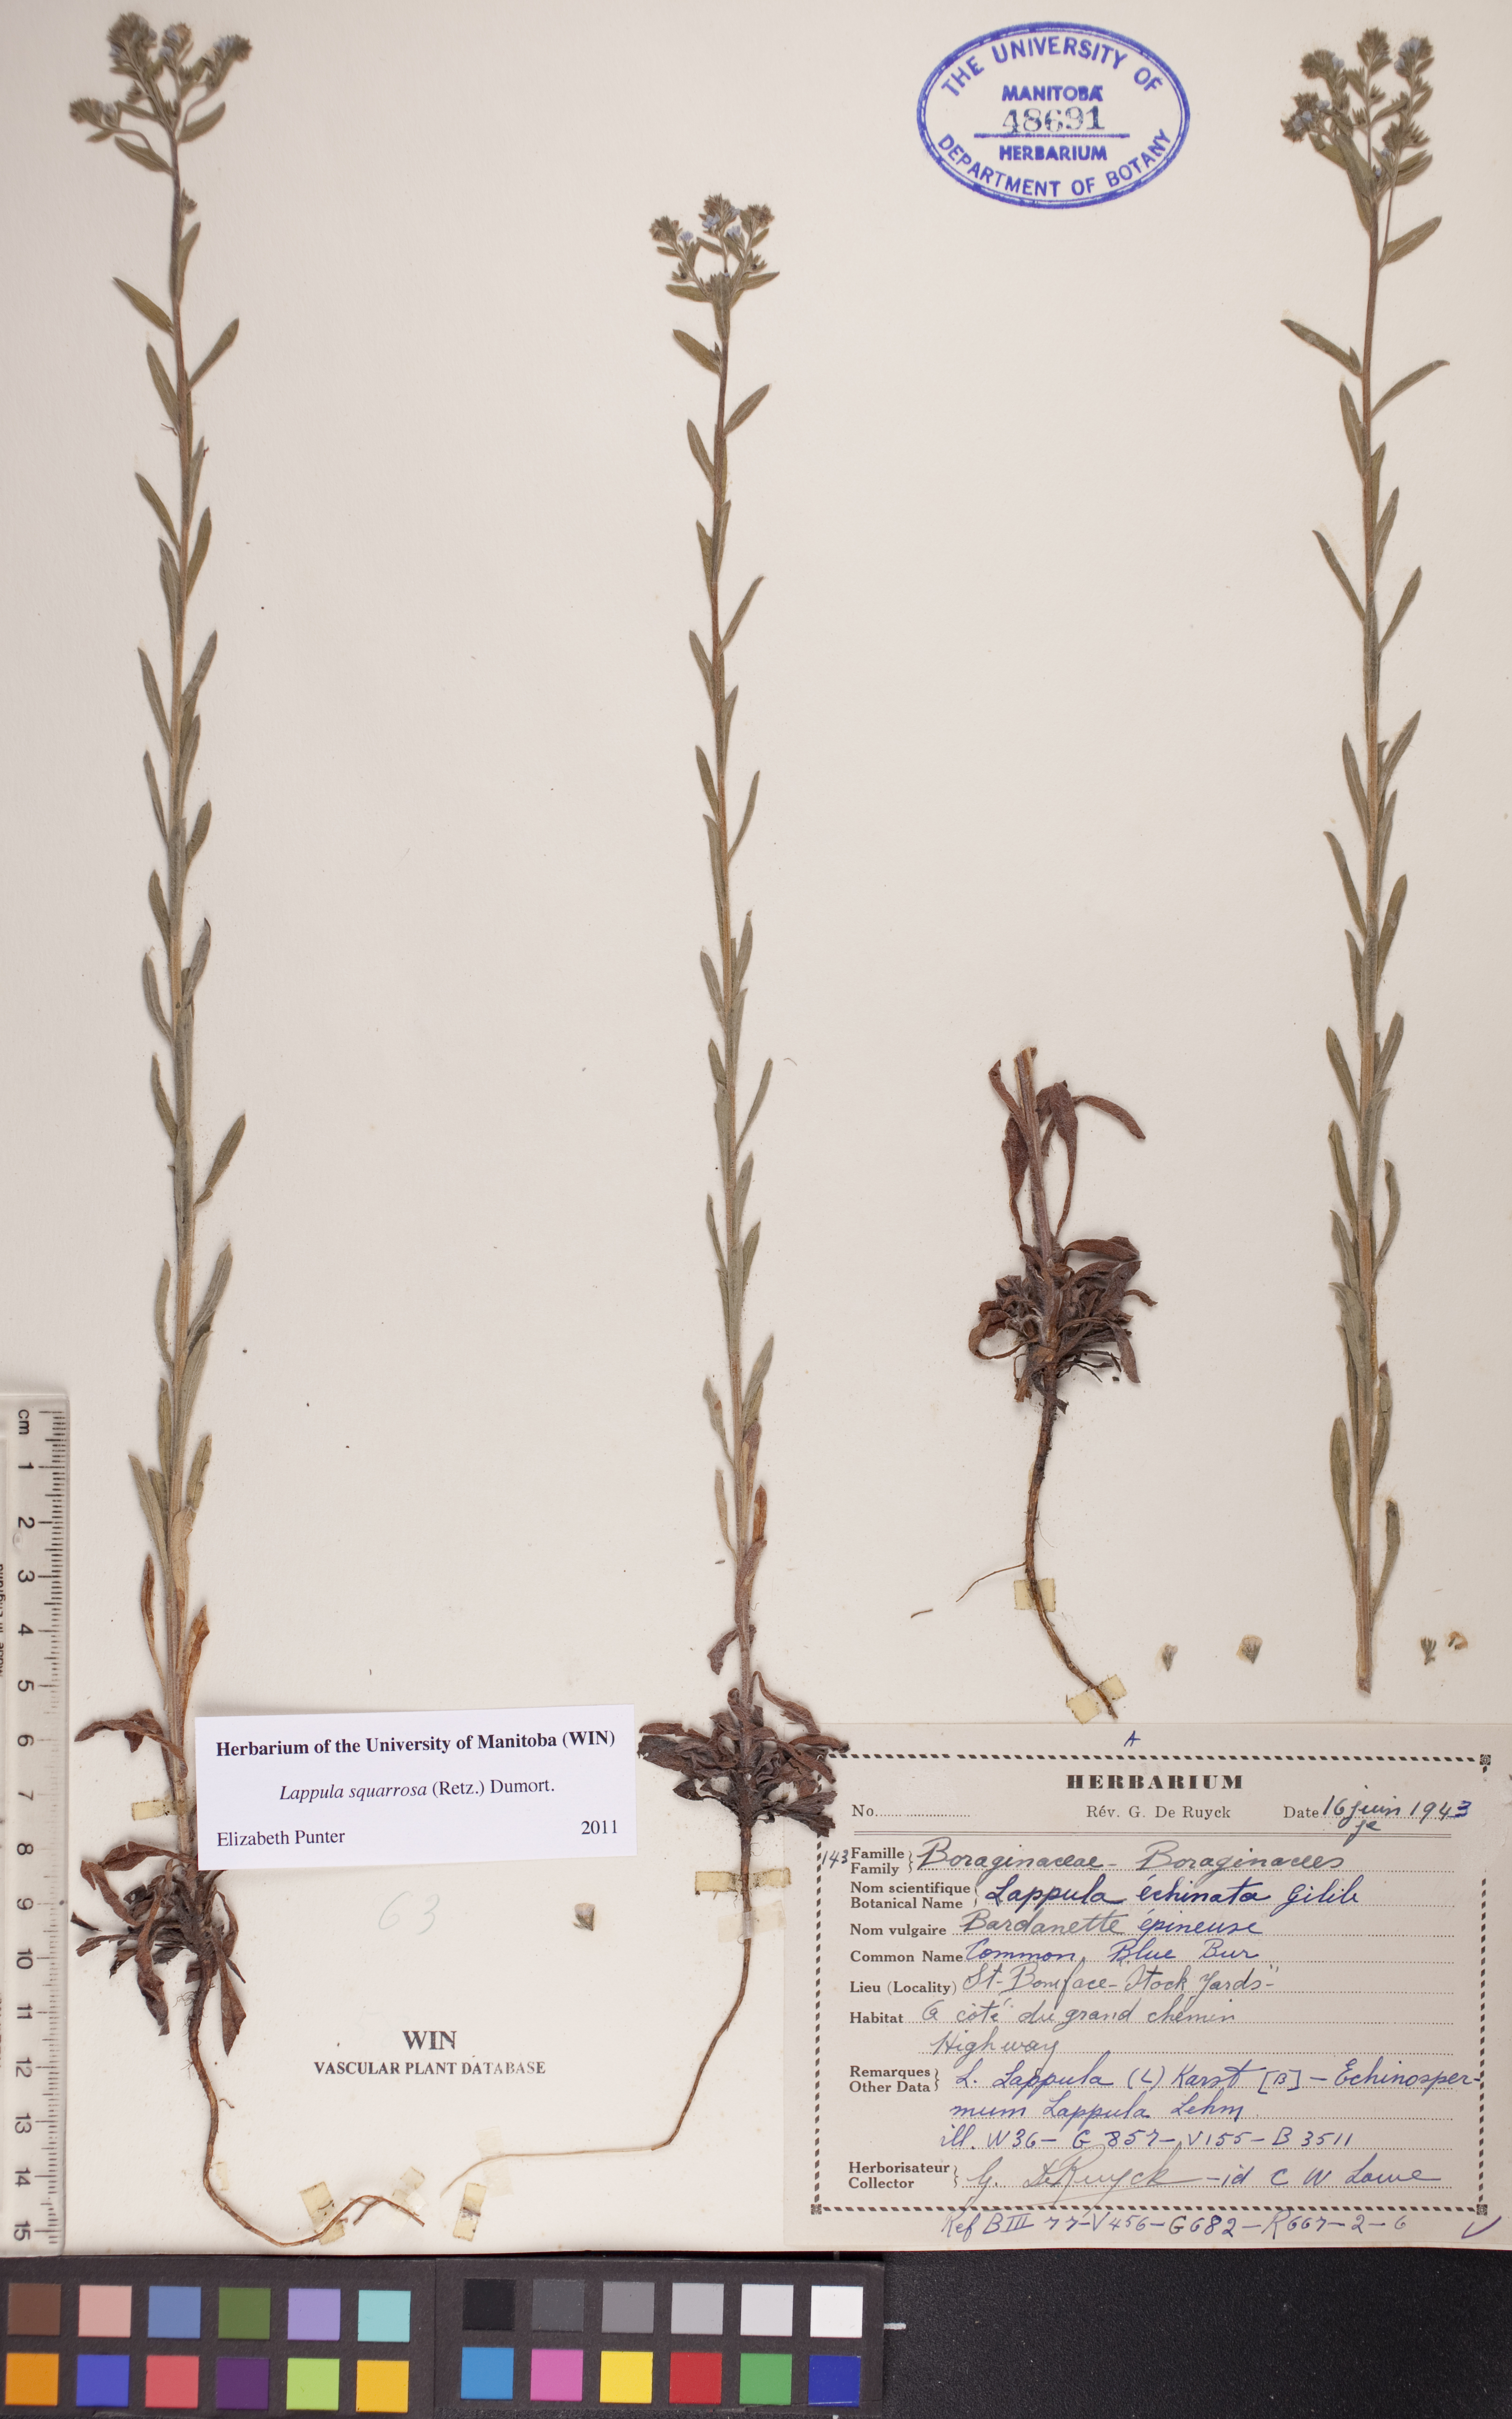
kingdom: Plantae
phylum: Tracheophyta
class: Magnoliopsida
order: Boraginales
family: Boraginaceae
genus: Lappula
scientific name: Lappula squarrosa
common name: European stickseed
